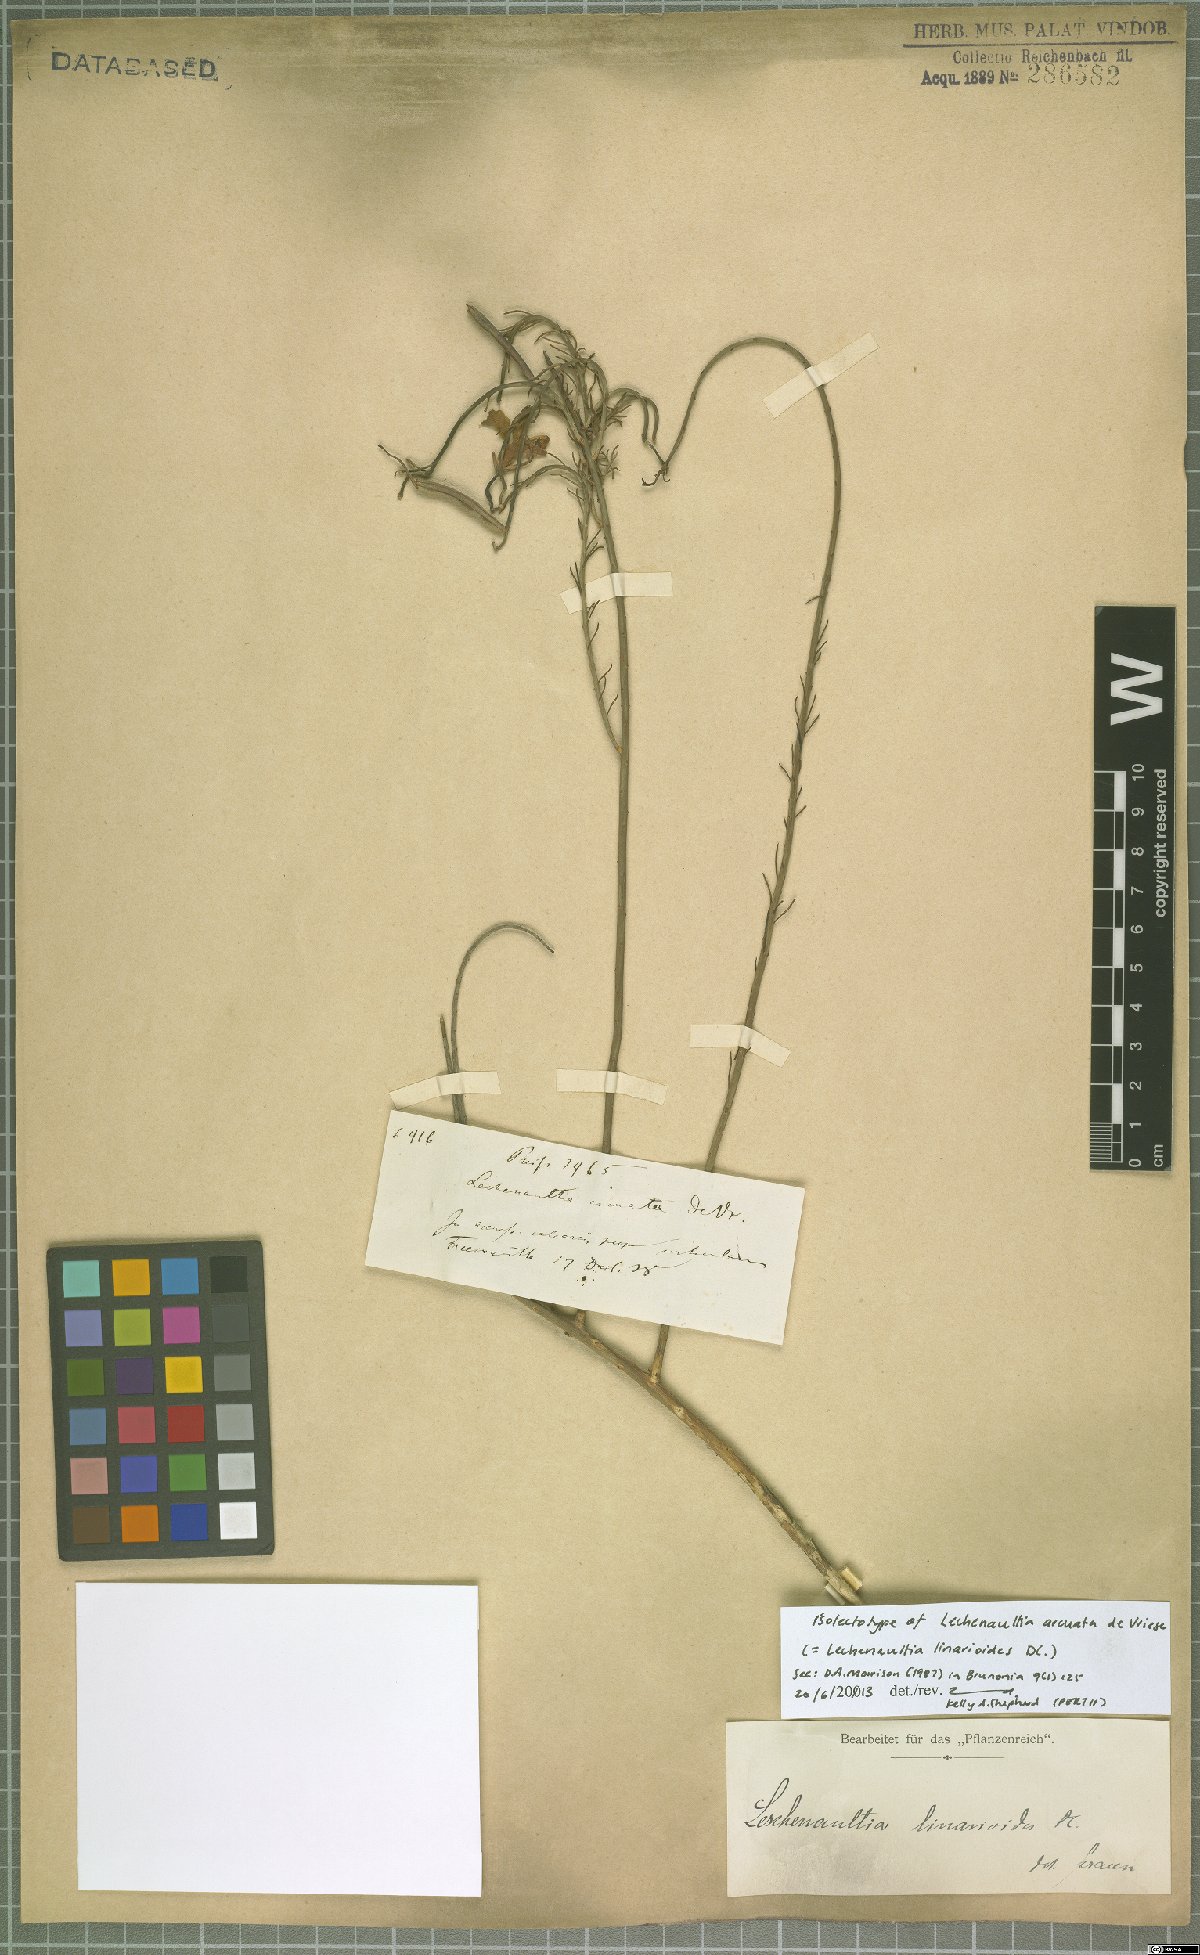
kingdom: Plantae
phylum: Tracheophyta
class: Magnoliopsida
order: Asterales
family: Goodeniaceae
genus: Lechenaultia
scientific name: Lechenaultia linarioides
